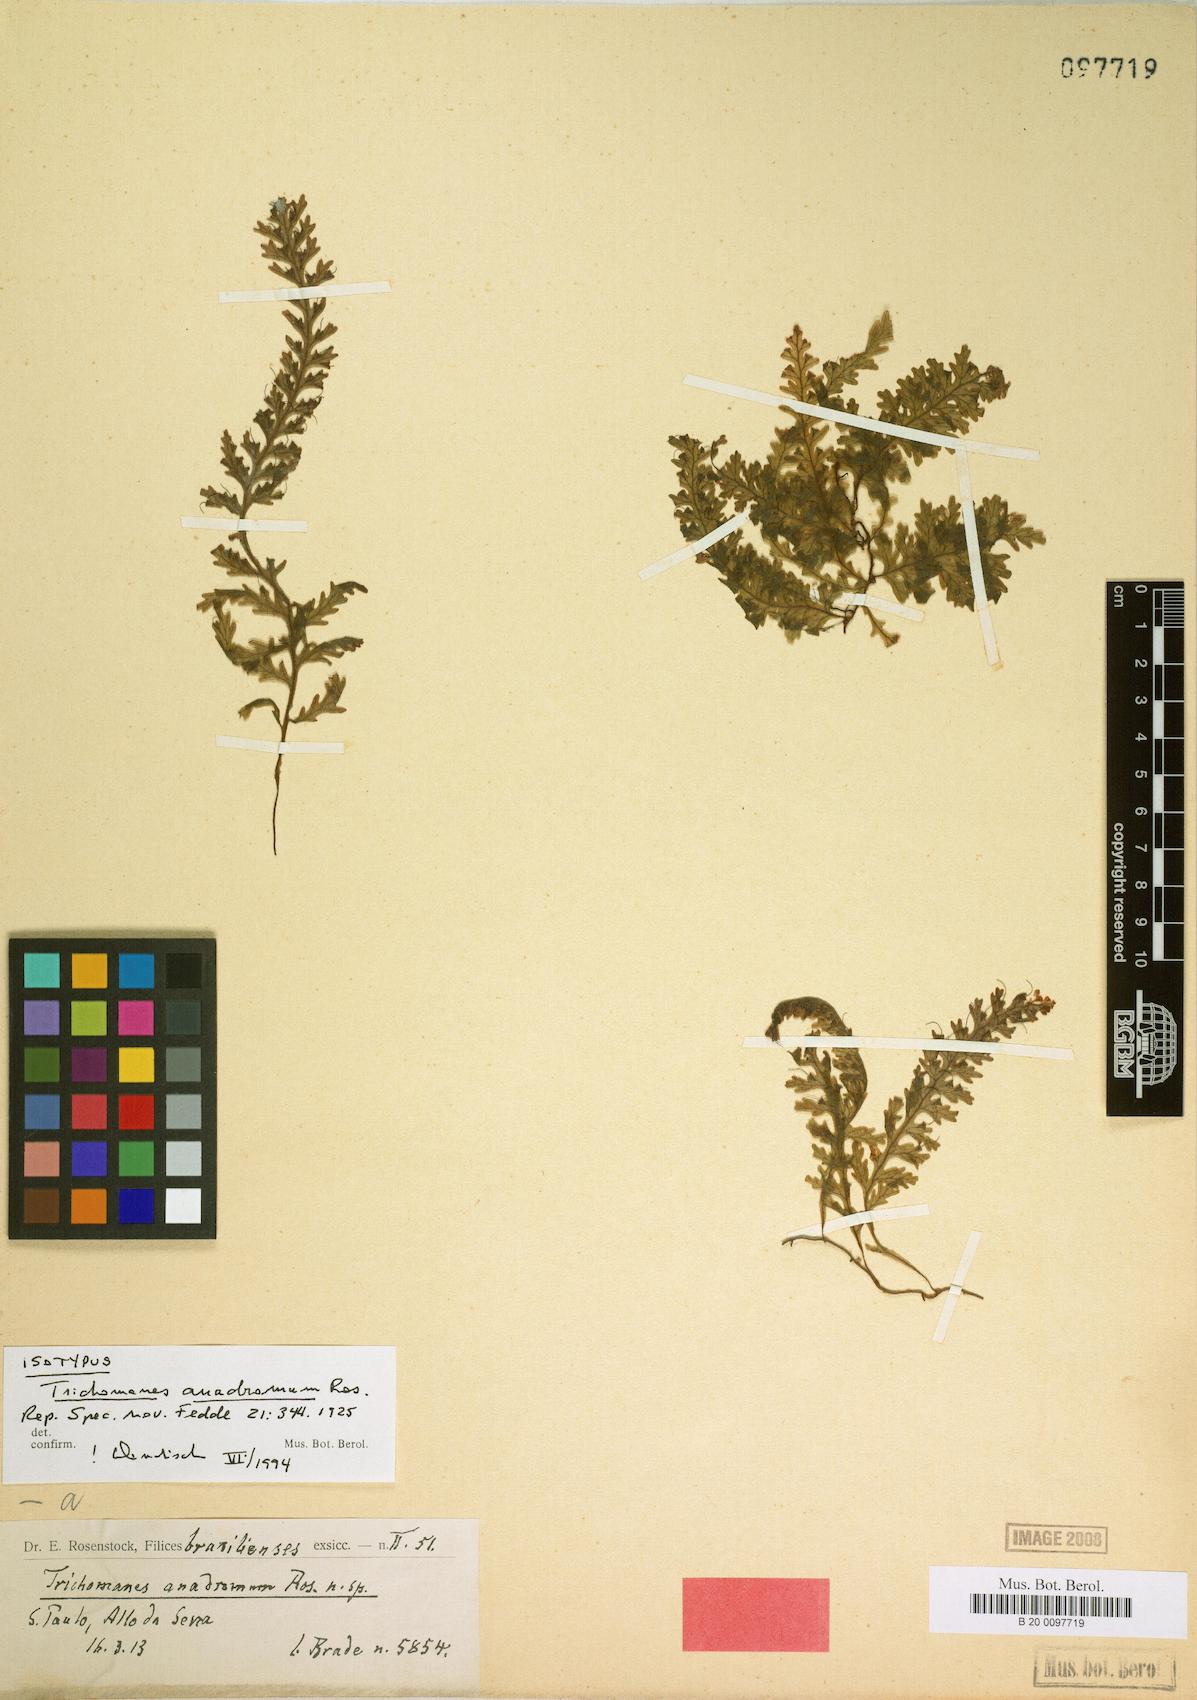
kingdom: Plantae
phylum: Tracheophyta
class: Polypodiopsida
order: Hymenophyllales
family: Hymenophyllaceae
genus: Trichomanes
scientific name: Trichomanes anadromum
